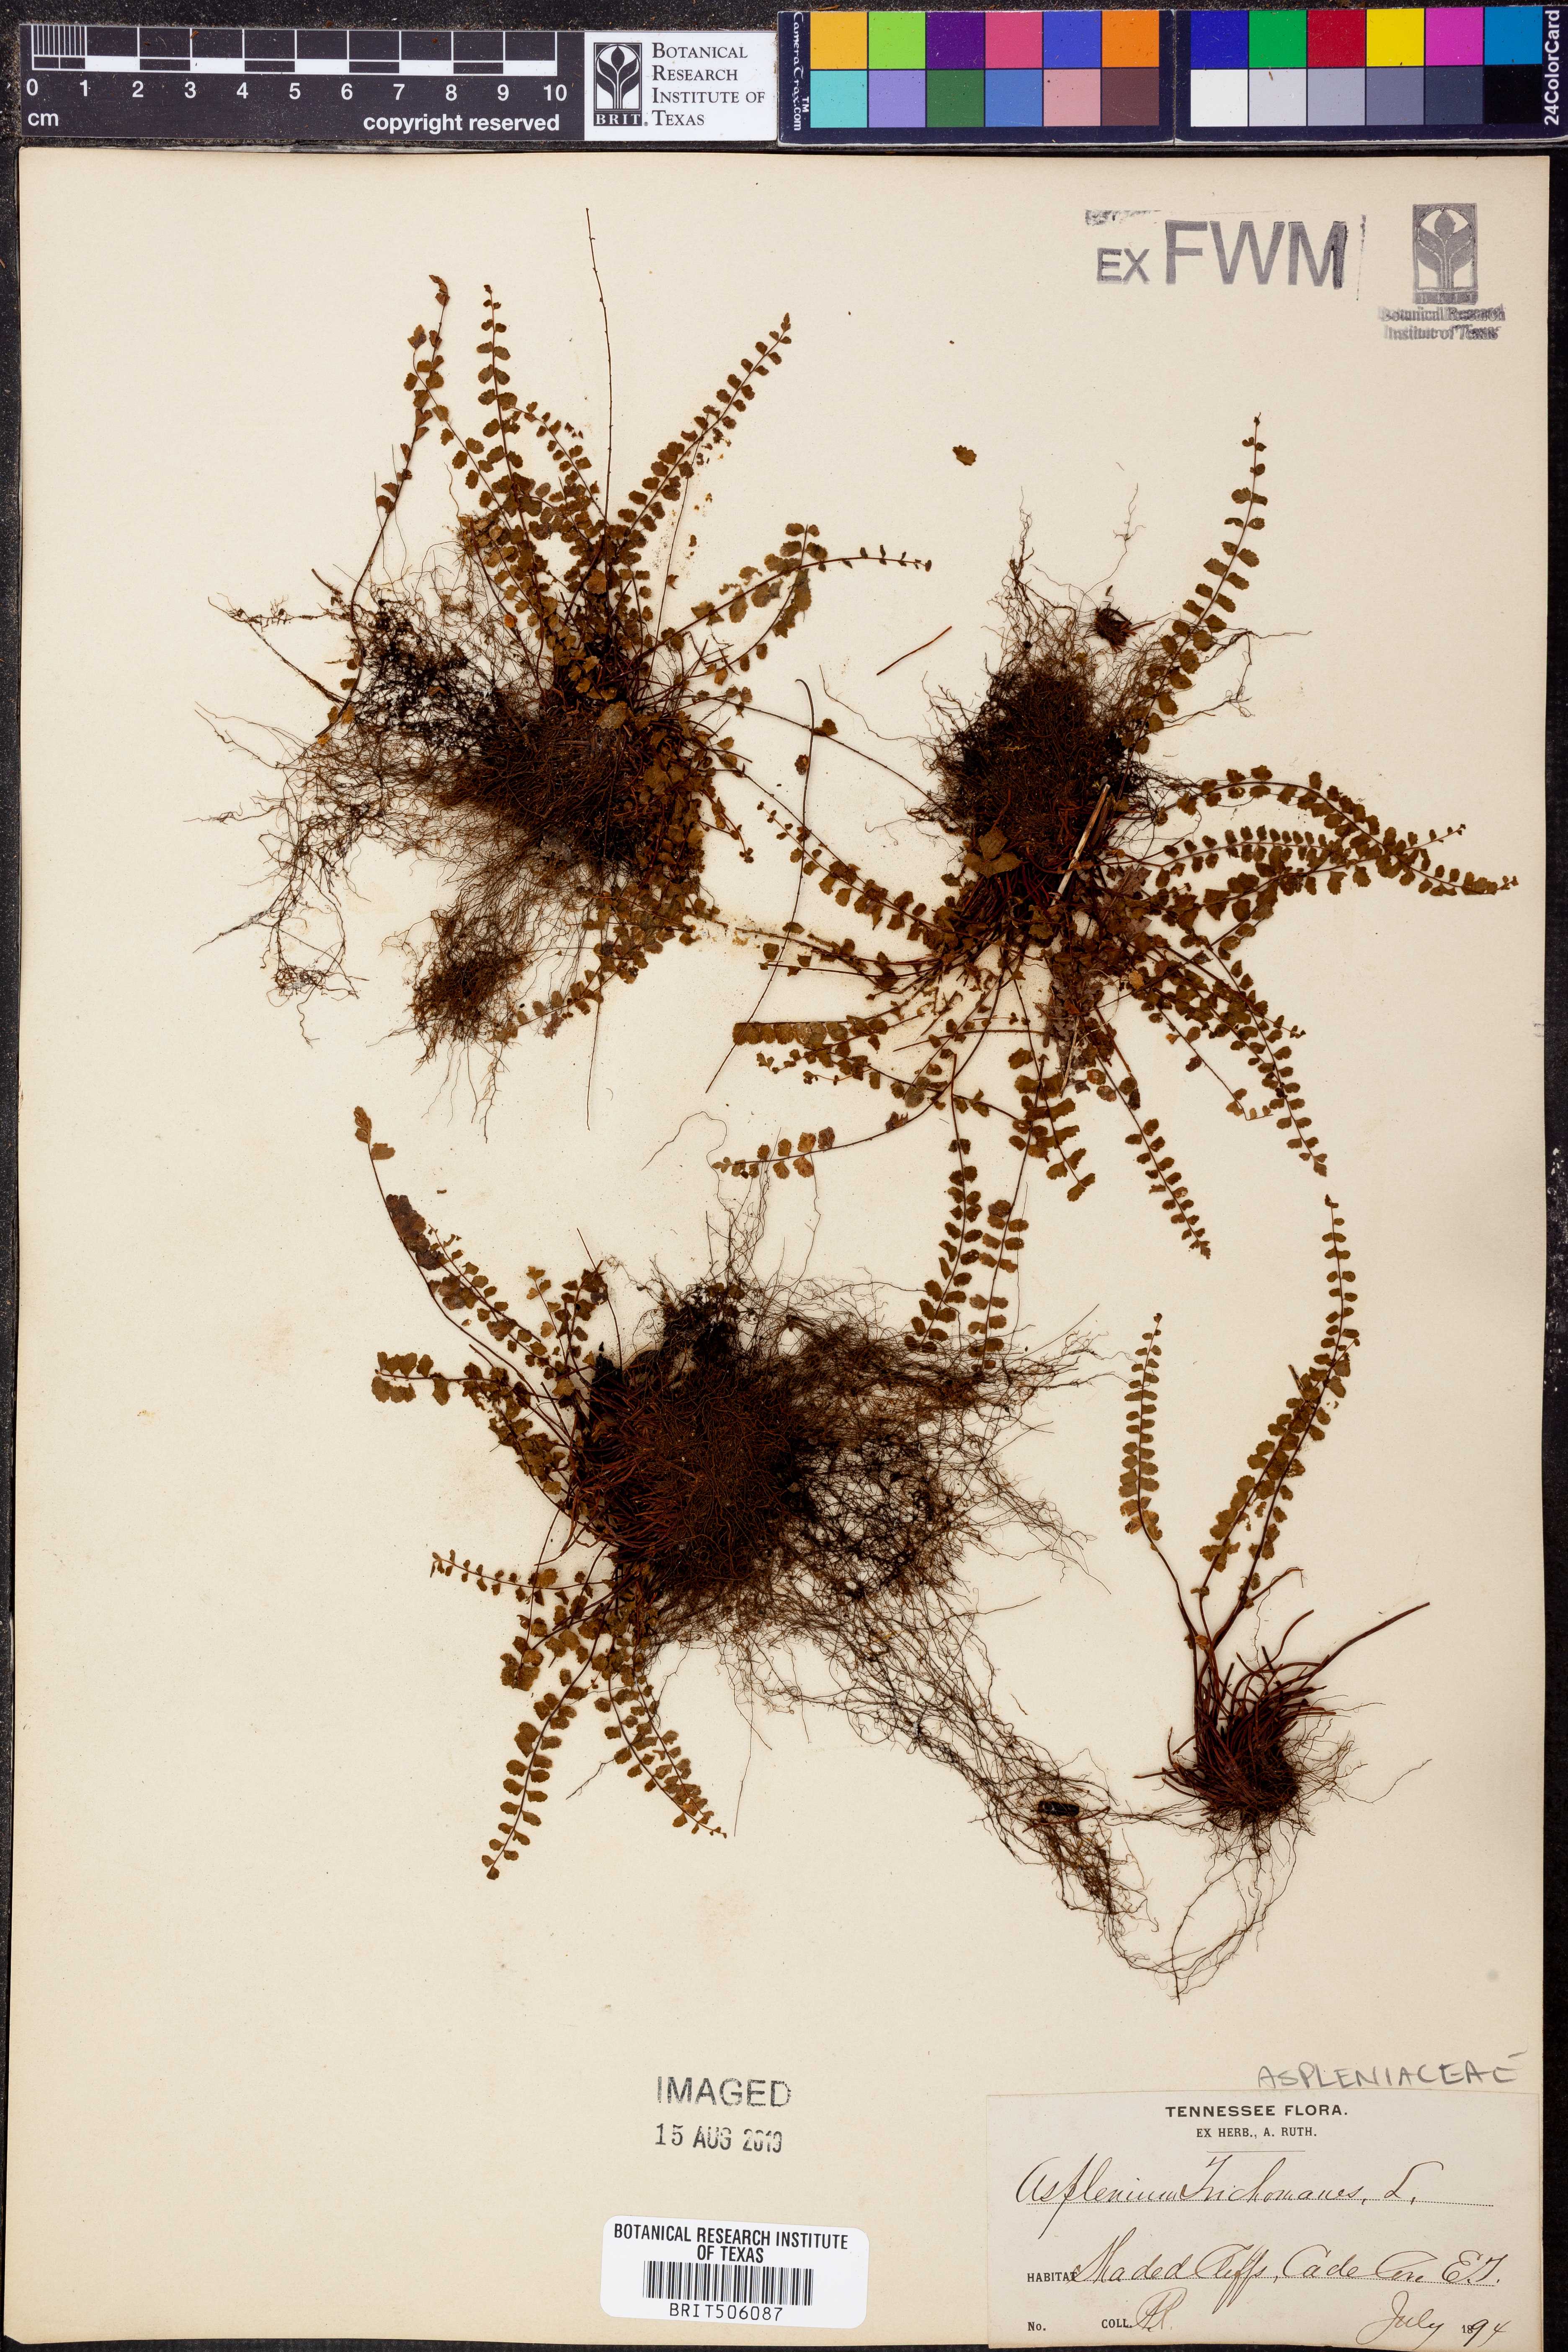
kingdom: Plantae
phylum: Tracheophyta
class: Polypodiopsida
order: Polypodiales
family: Aspleniaceae
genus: Asplenium
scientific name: Asplenium trichomanes
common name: Maidenhair spleenwort
